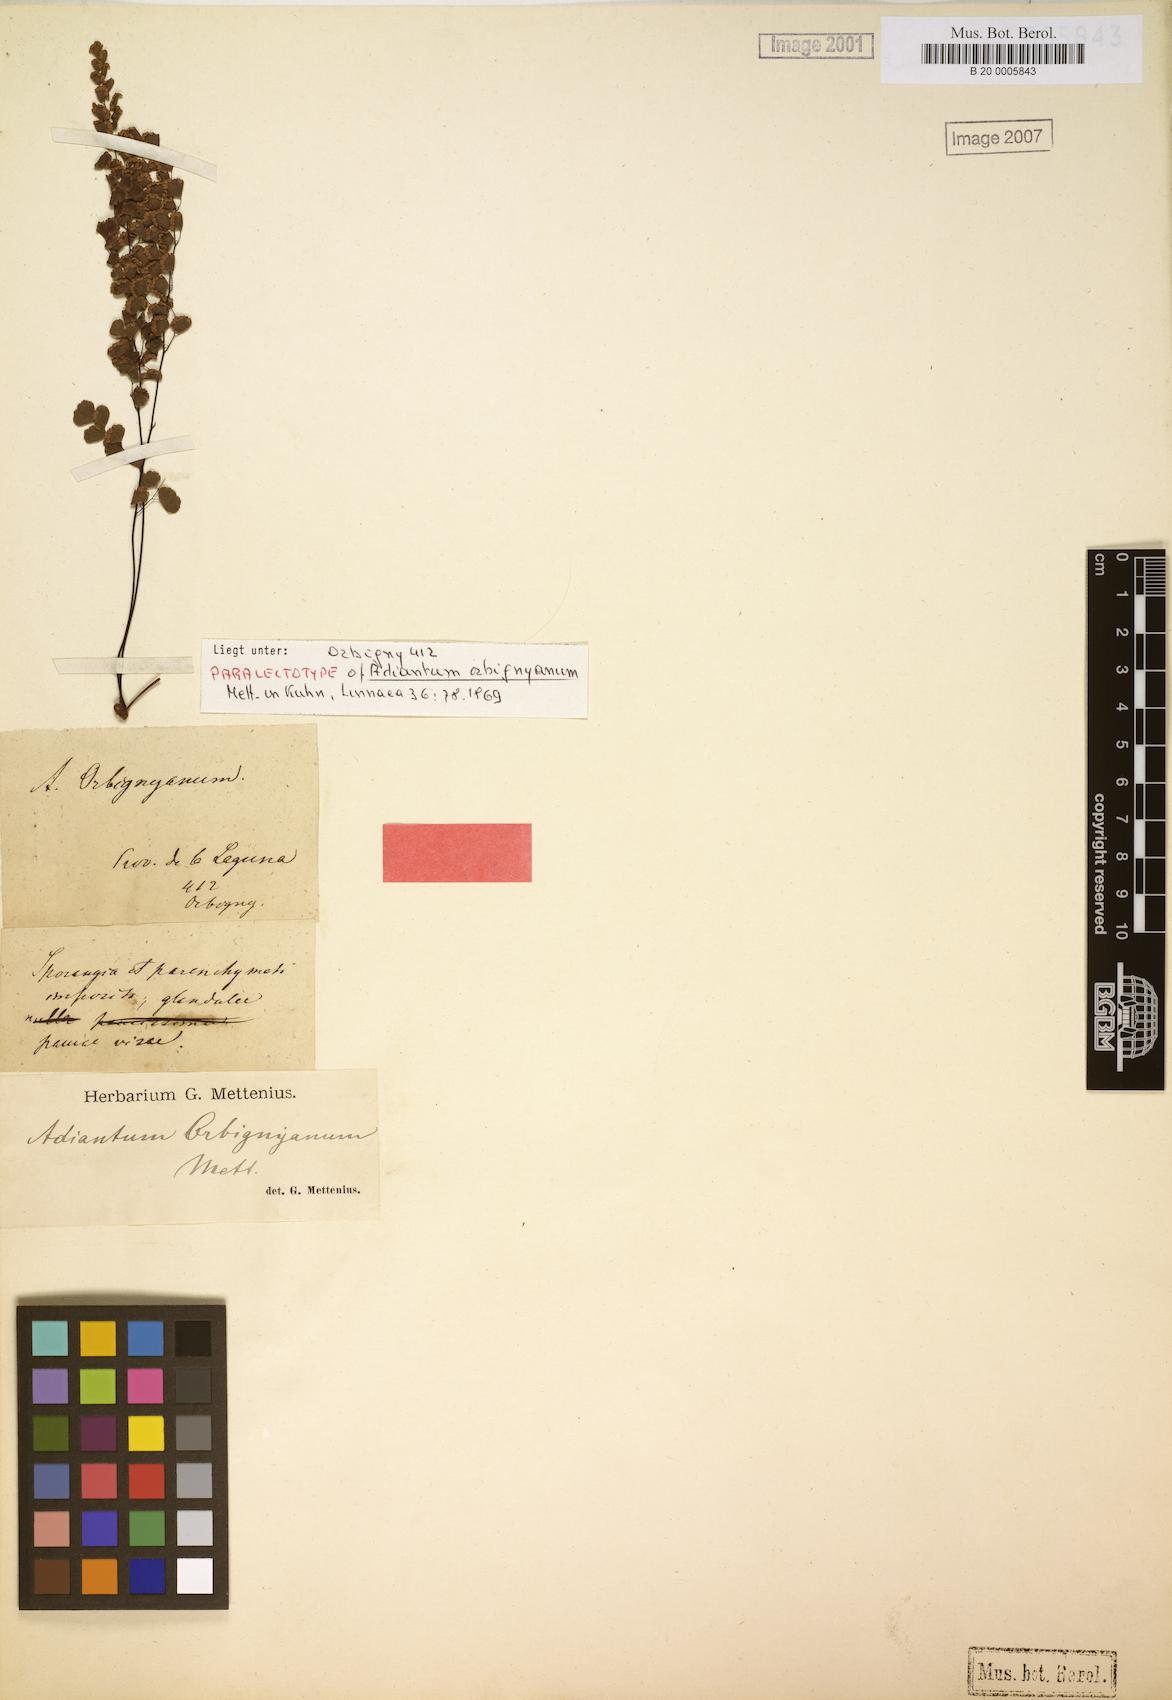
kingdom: Plantae
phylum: Tracheophyta
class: Polypodiopsida
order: Polypodiales
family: Pteridaceae
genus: Adiantum
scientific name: Adiantum orbignyanum
